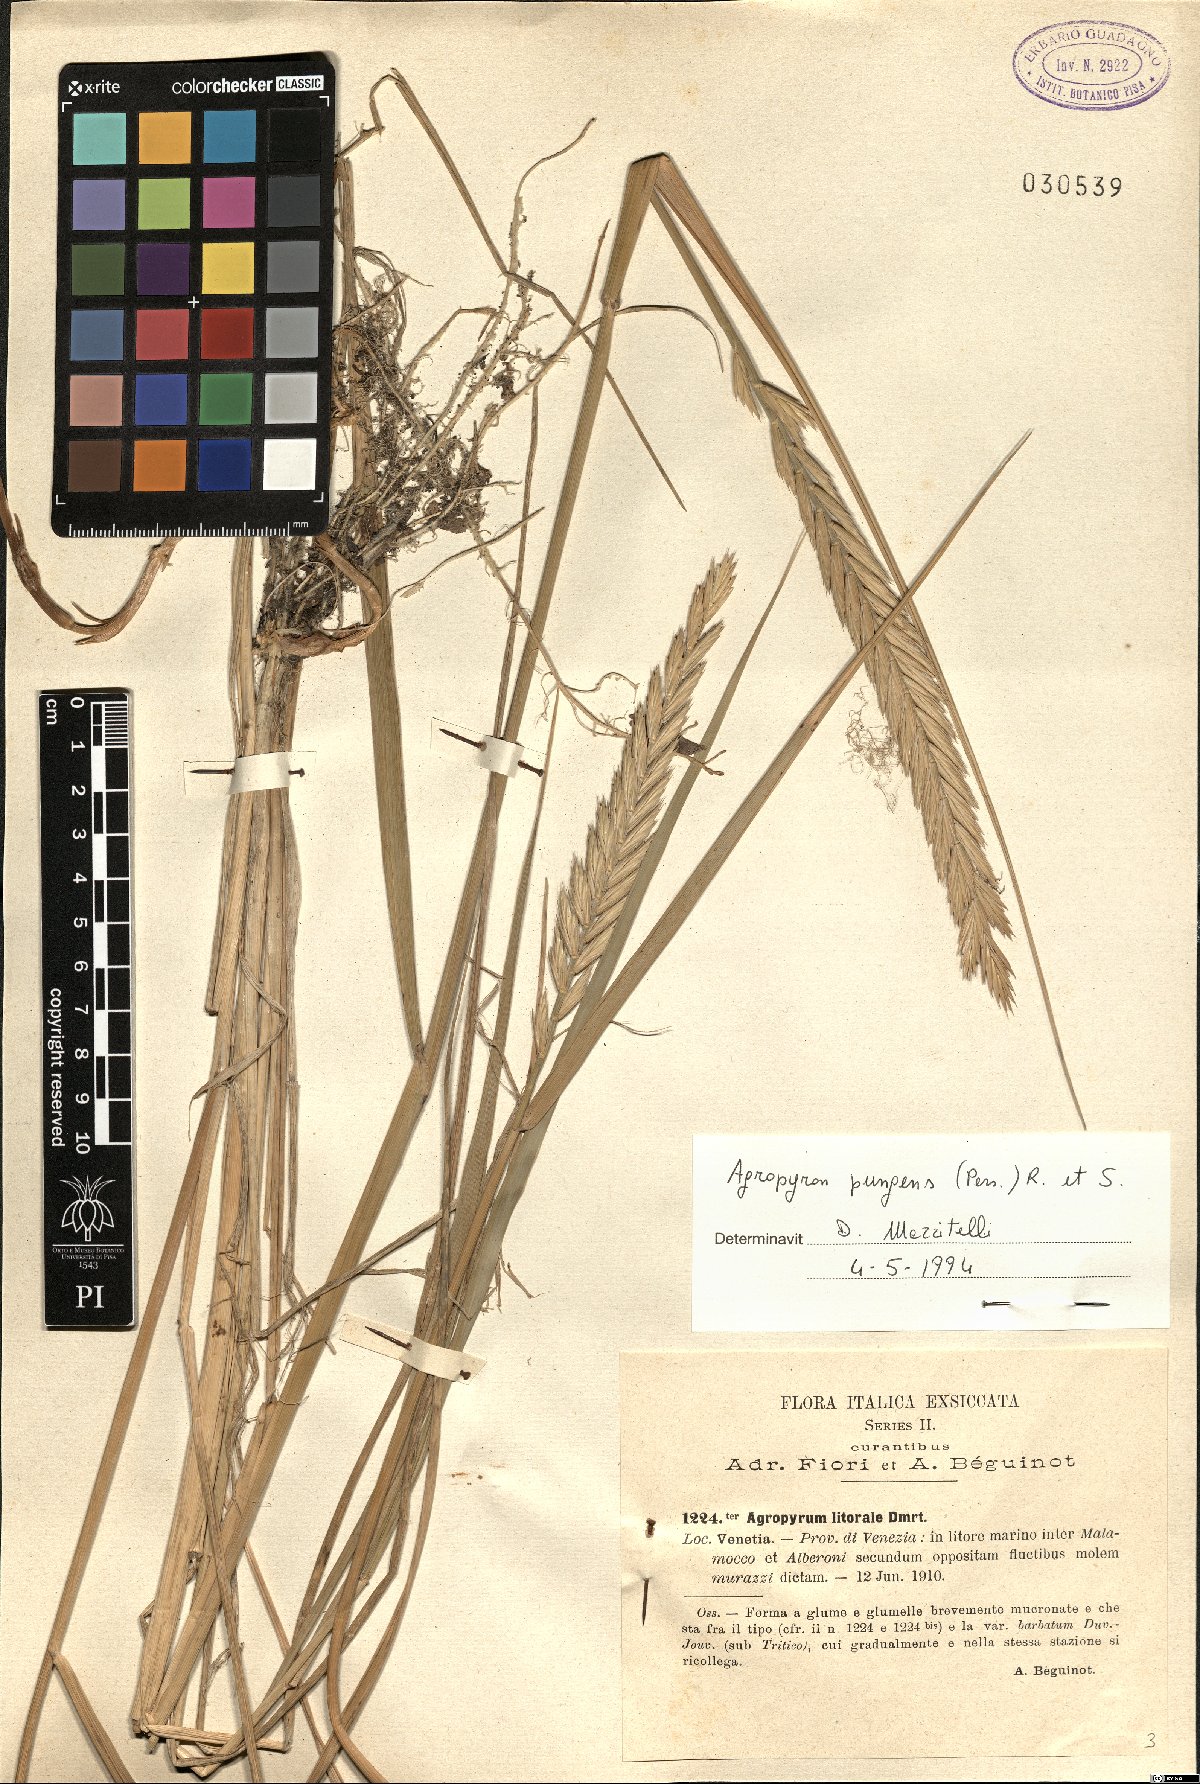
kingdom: Plantae
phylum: Tracheophyta
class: Liliopsida
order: Poales
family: Poaceae
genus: Elymus
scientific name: Elymus pungens
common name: Sea couch
